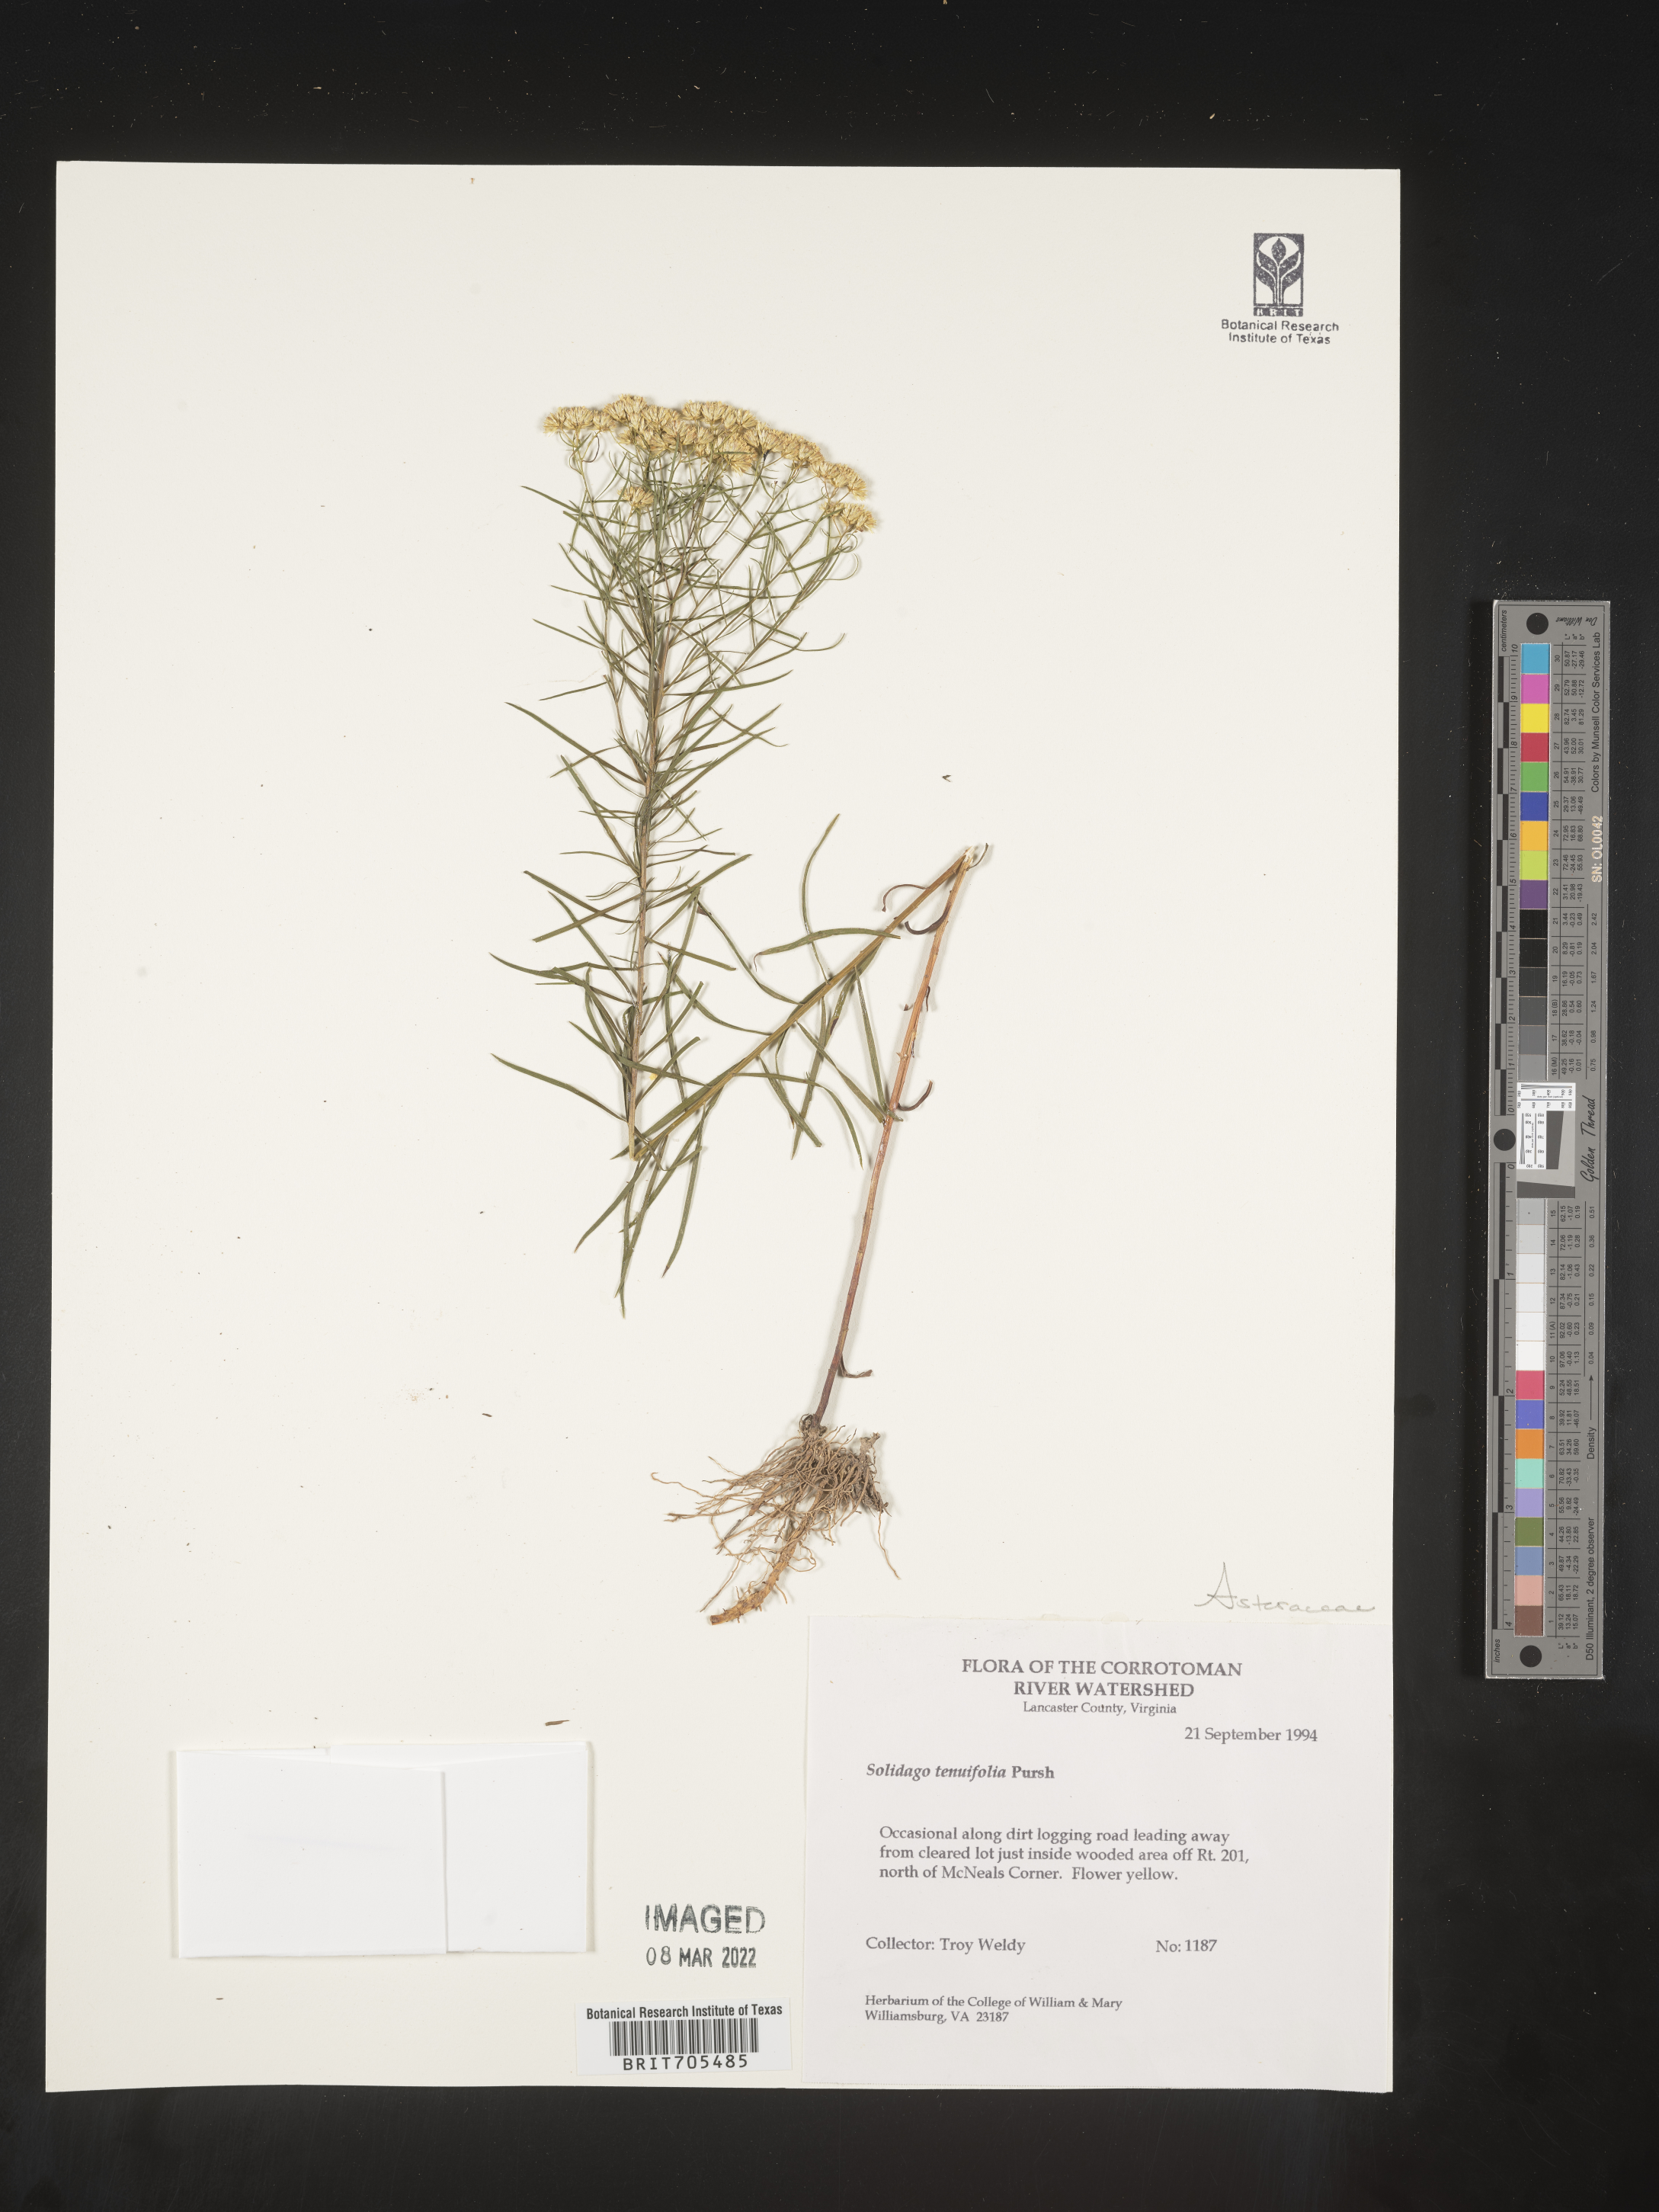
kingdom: Plantae
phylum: Tracheophyta
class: Magnoliopsida
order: Asterales
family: Asteraceae
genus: Euthamia
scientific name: Euthamia caroliniana
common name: Coastal plain goldentop
